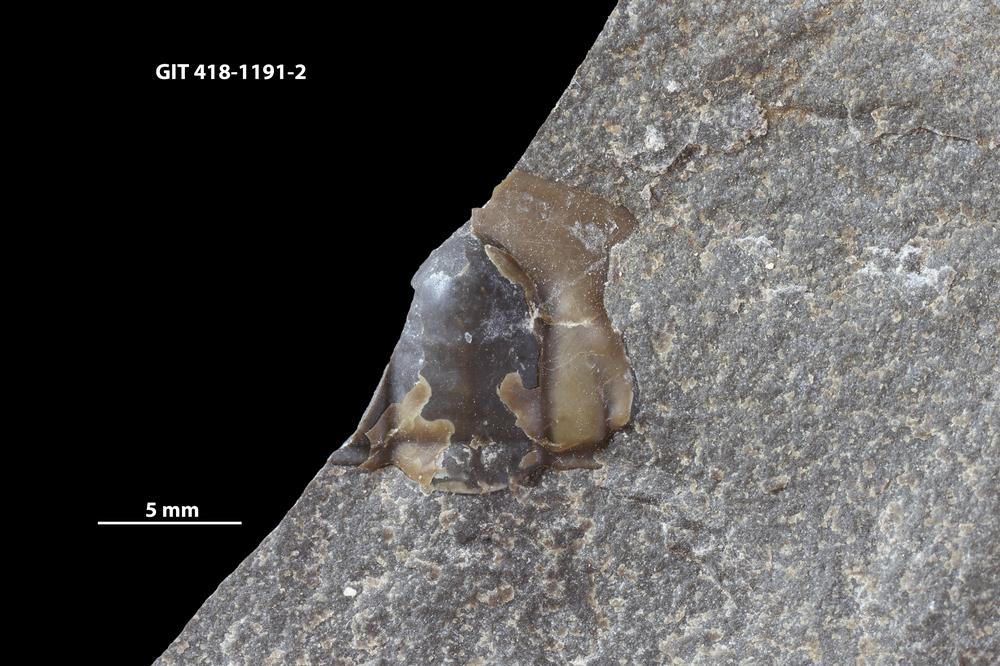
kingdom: Animalia
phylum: Arthropoda
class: Trilobita
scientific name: Trilobita
